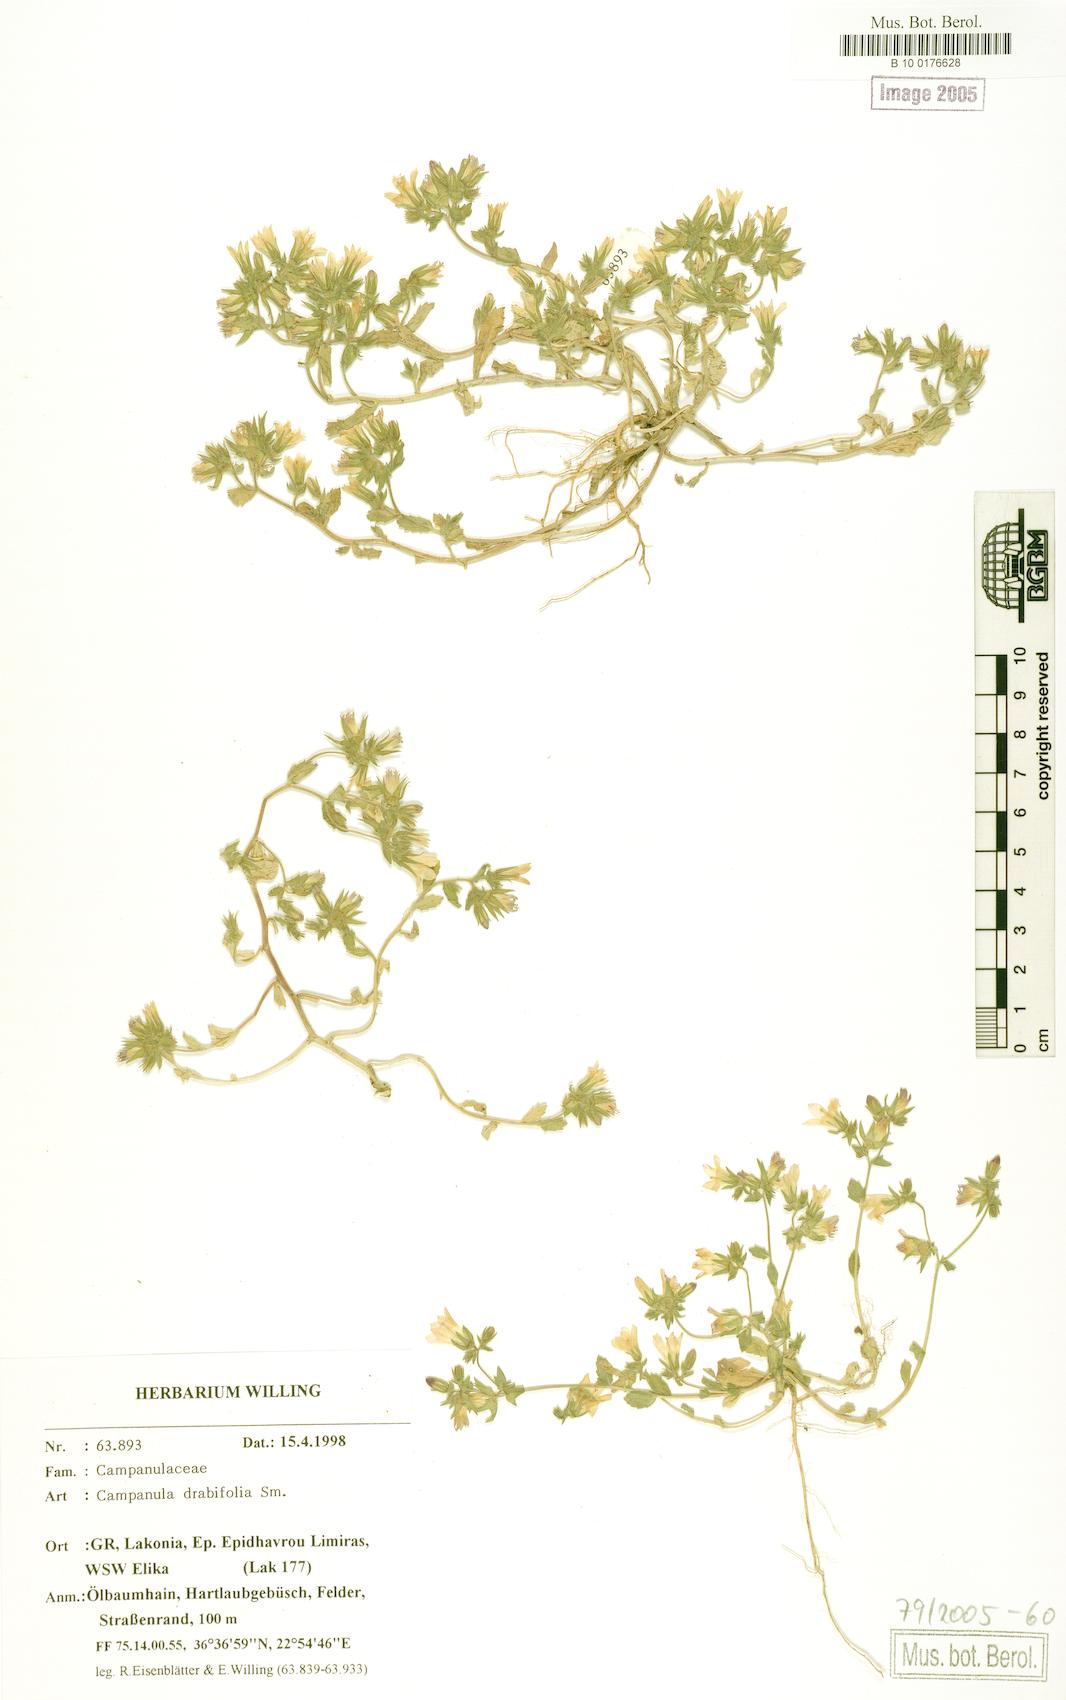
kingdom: Plantae
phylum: Tracheophyta
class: Magnoliopsida
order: Asterales
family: Campanulaceae
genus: Campanula
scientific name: Campanula drabifolia
